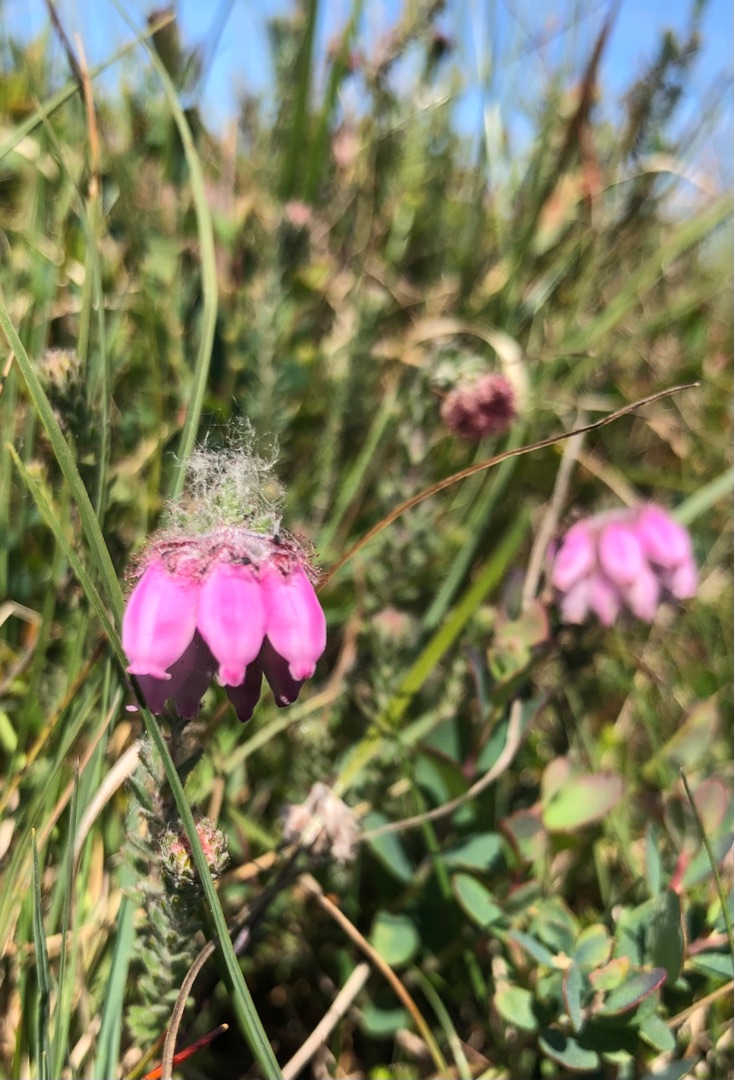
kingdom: Plantae
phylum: Tracheophyta
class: Magnoliopsida
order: Ericales
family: Ericaceae
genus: Erica
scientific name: Erica tetralix
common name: Klokkelyng
